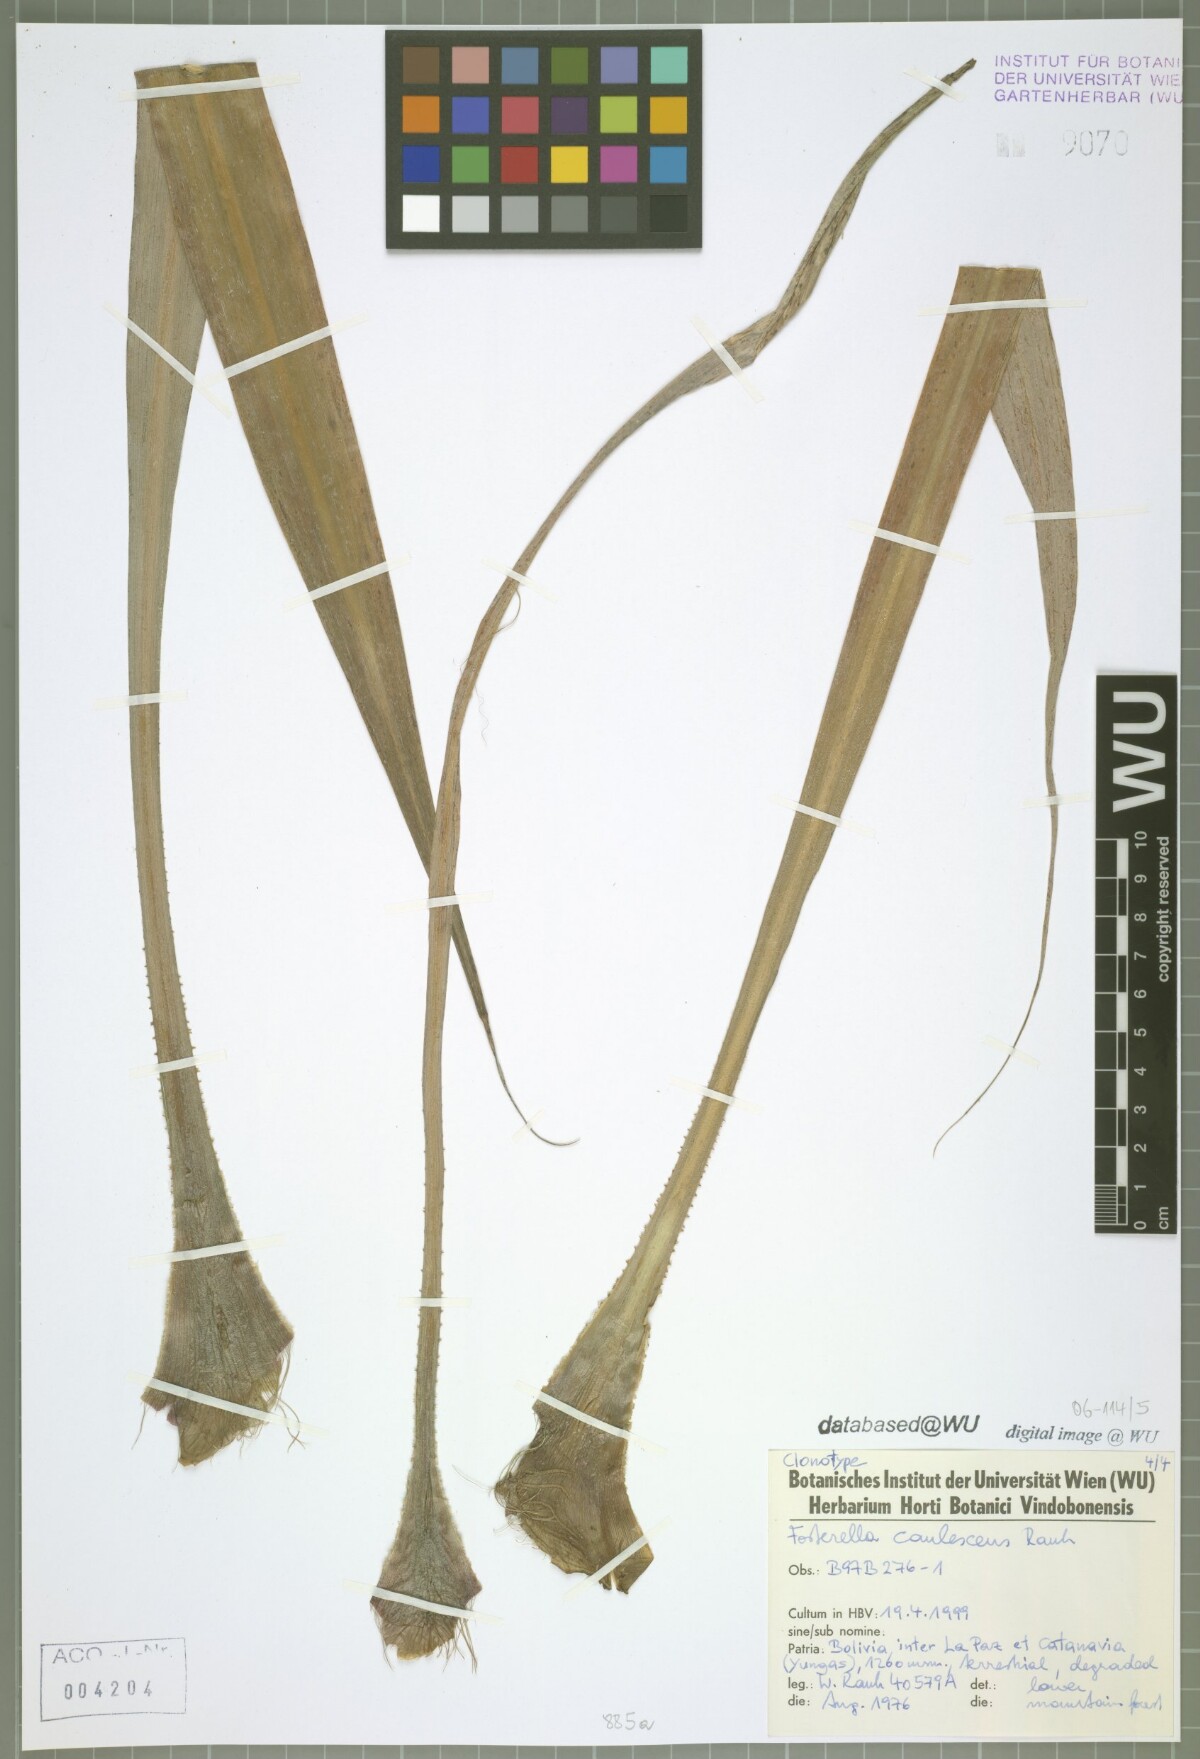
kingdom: Plantae
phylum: Tracheophyta
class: Liliopsida
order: Poales
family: Bromeliaceae
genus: Fosterella
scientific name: Fosterella caulescens
